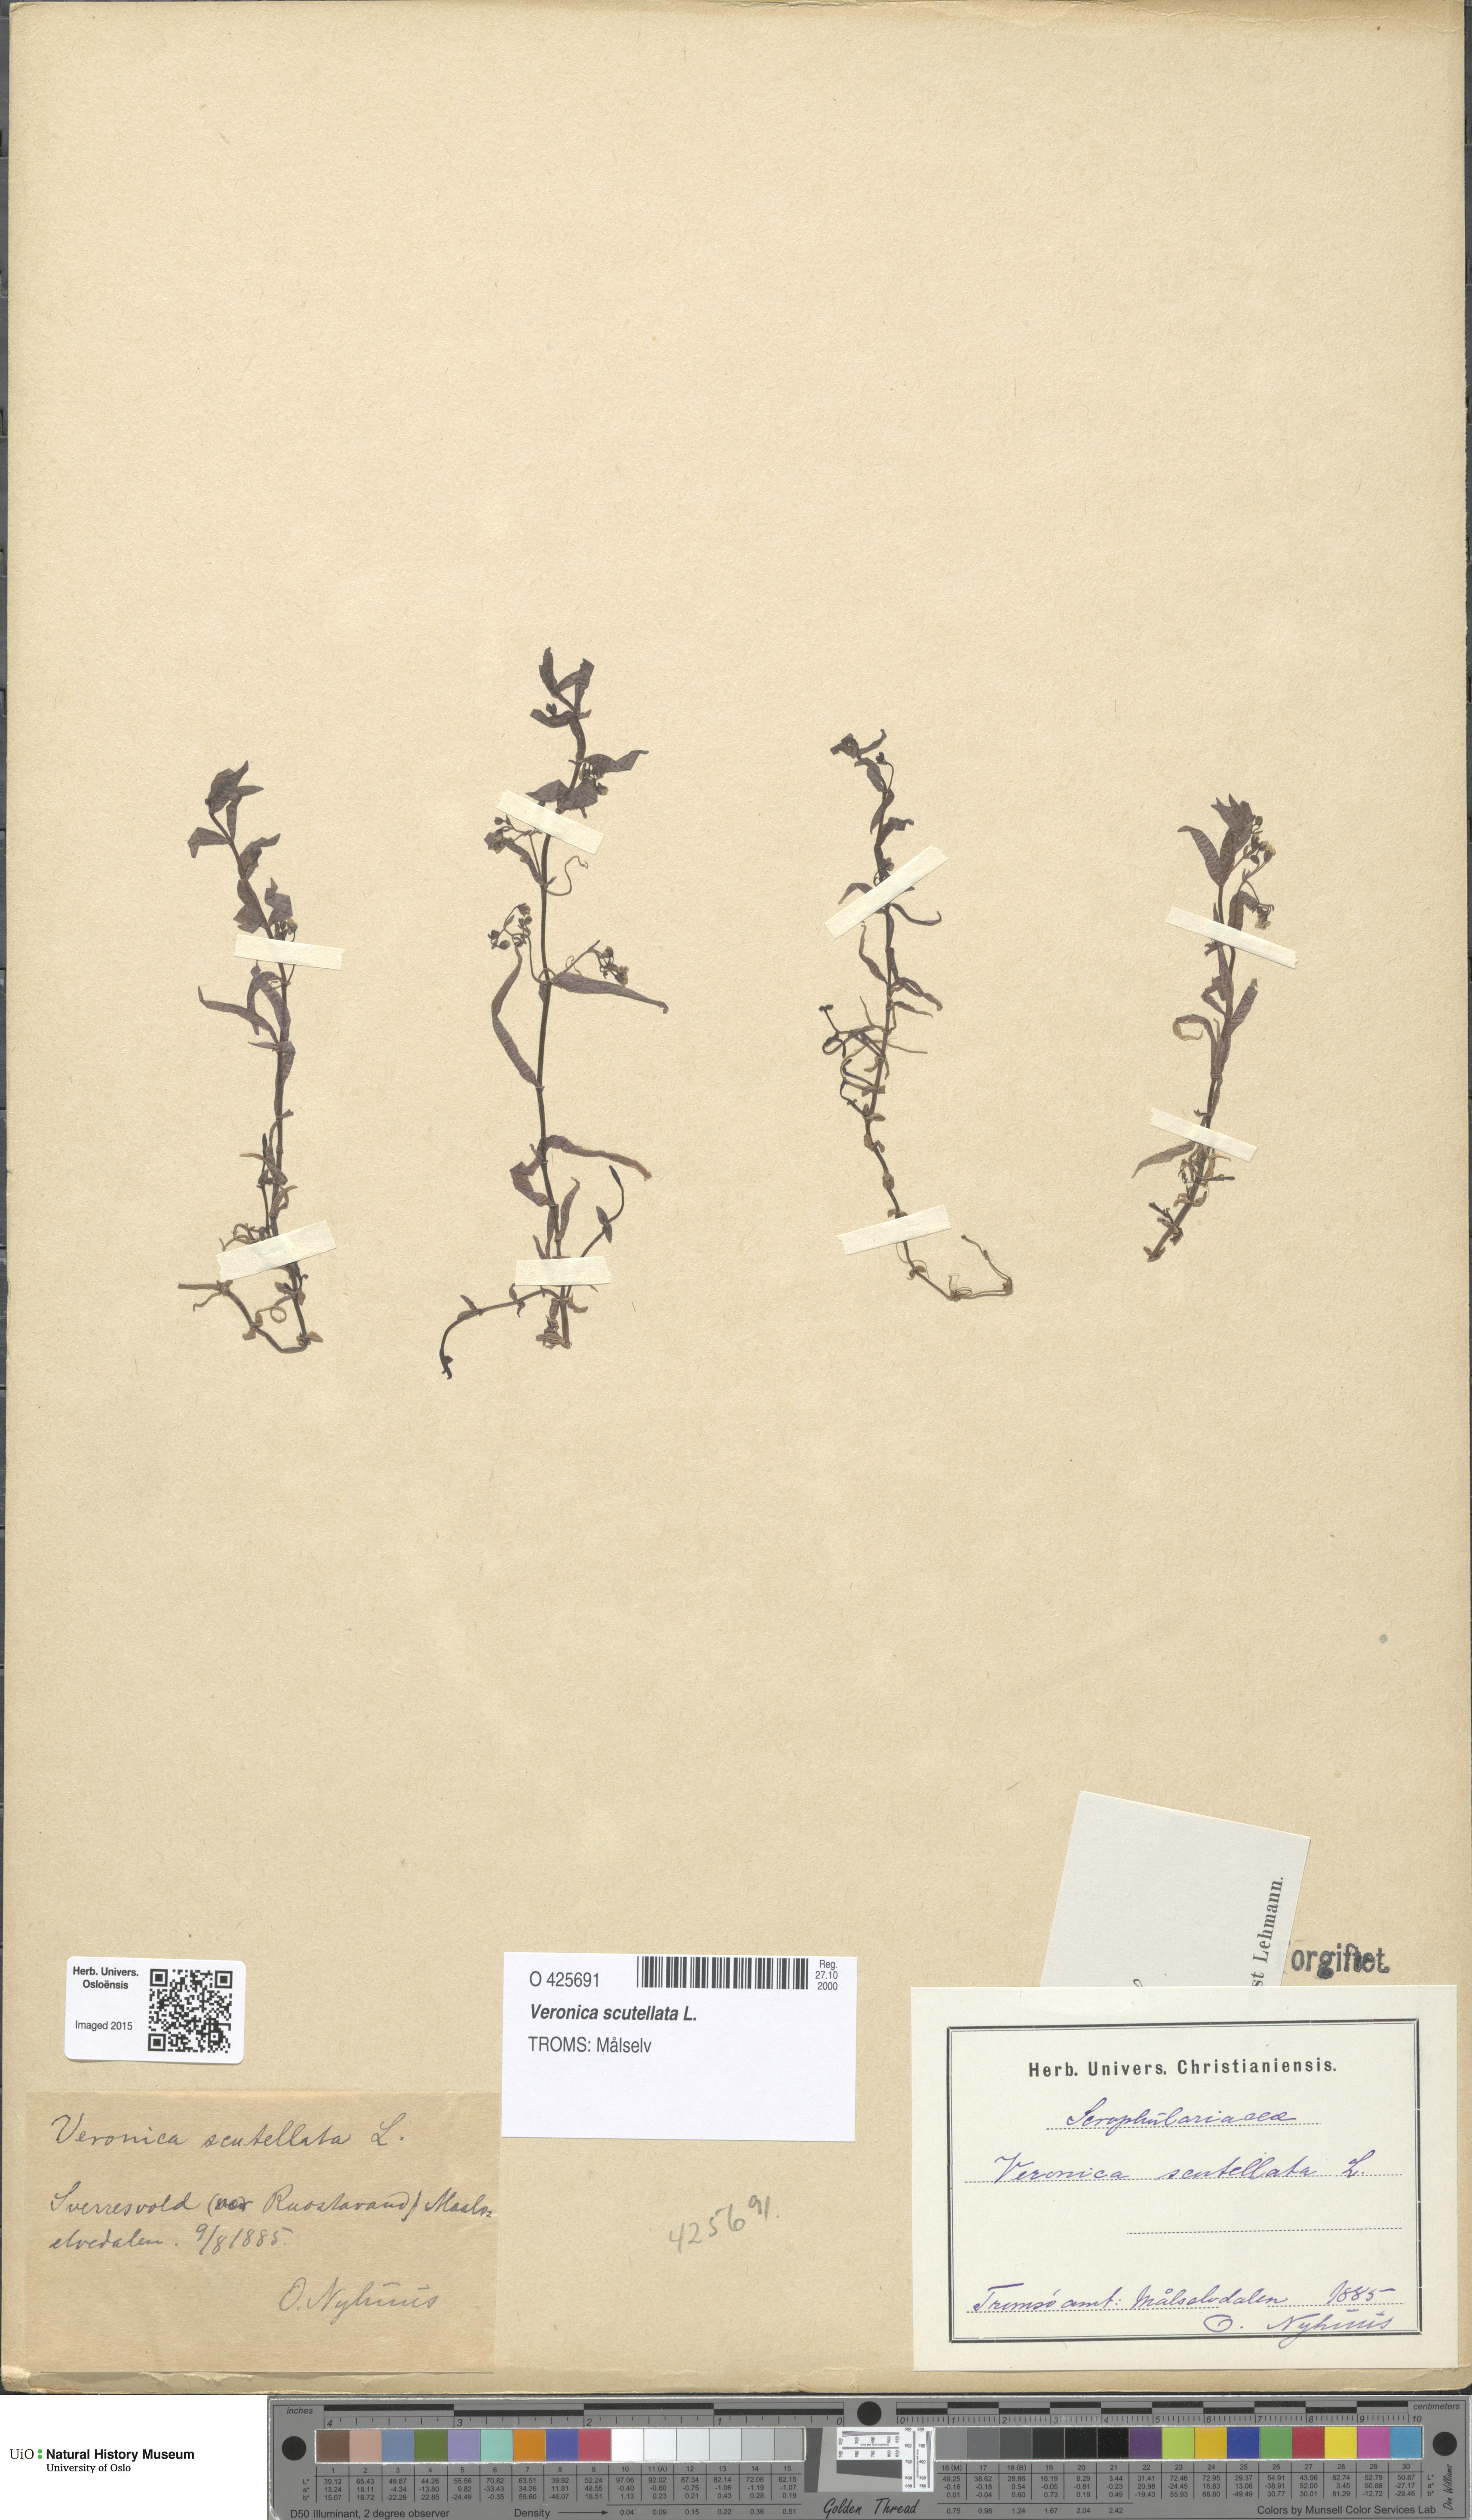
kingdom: Plantae
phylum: Tracheophyta
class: Magnoliopsida
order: Lamiales
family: Plantaginaceae
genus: Veronica
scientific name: Veronica scutellata
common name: Marsh speedwell
